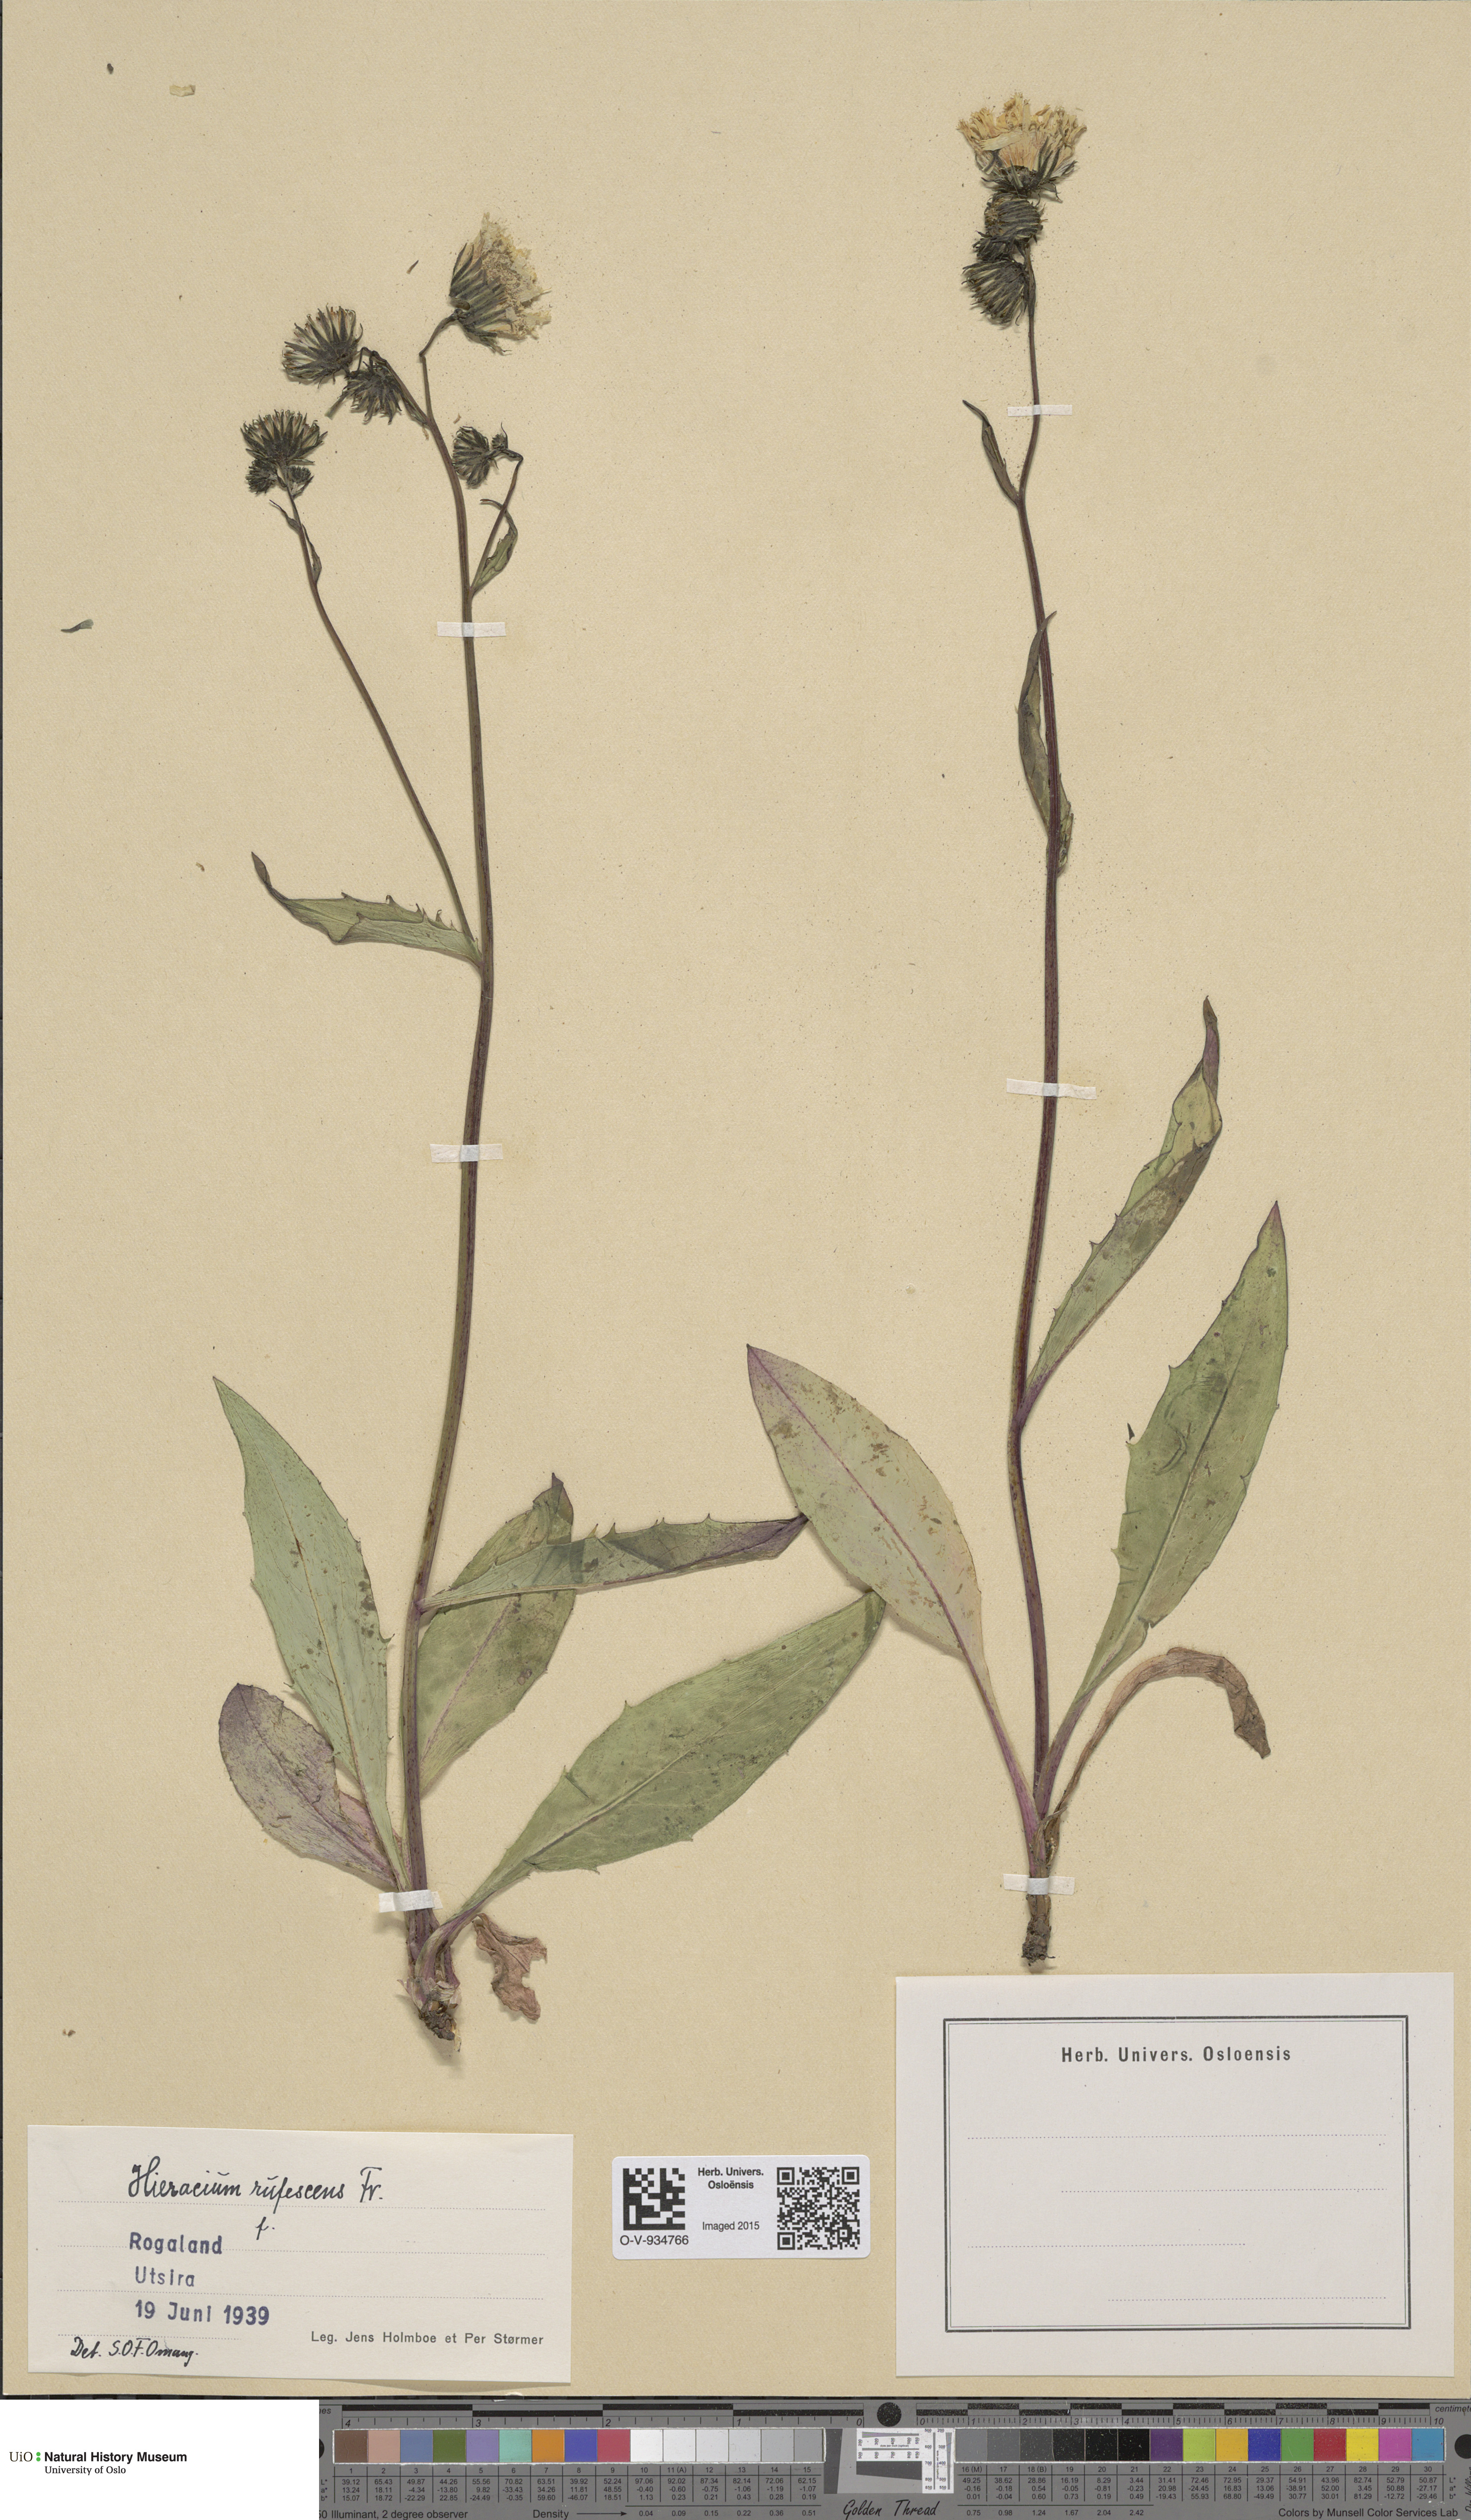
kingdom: Plantae
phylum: Tracheophyta
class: Magnoliopsida
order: Asterales
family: Asteraceae
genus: Hieracium
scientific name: Hieracium
